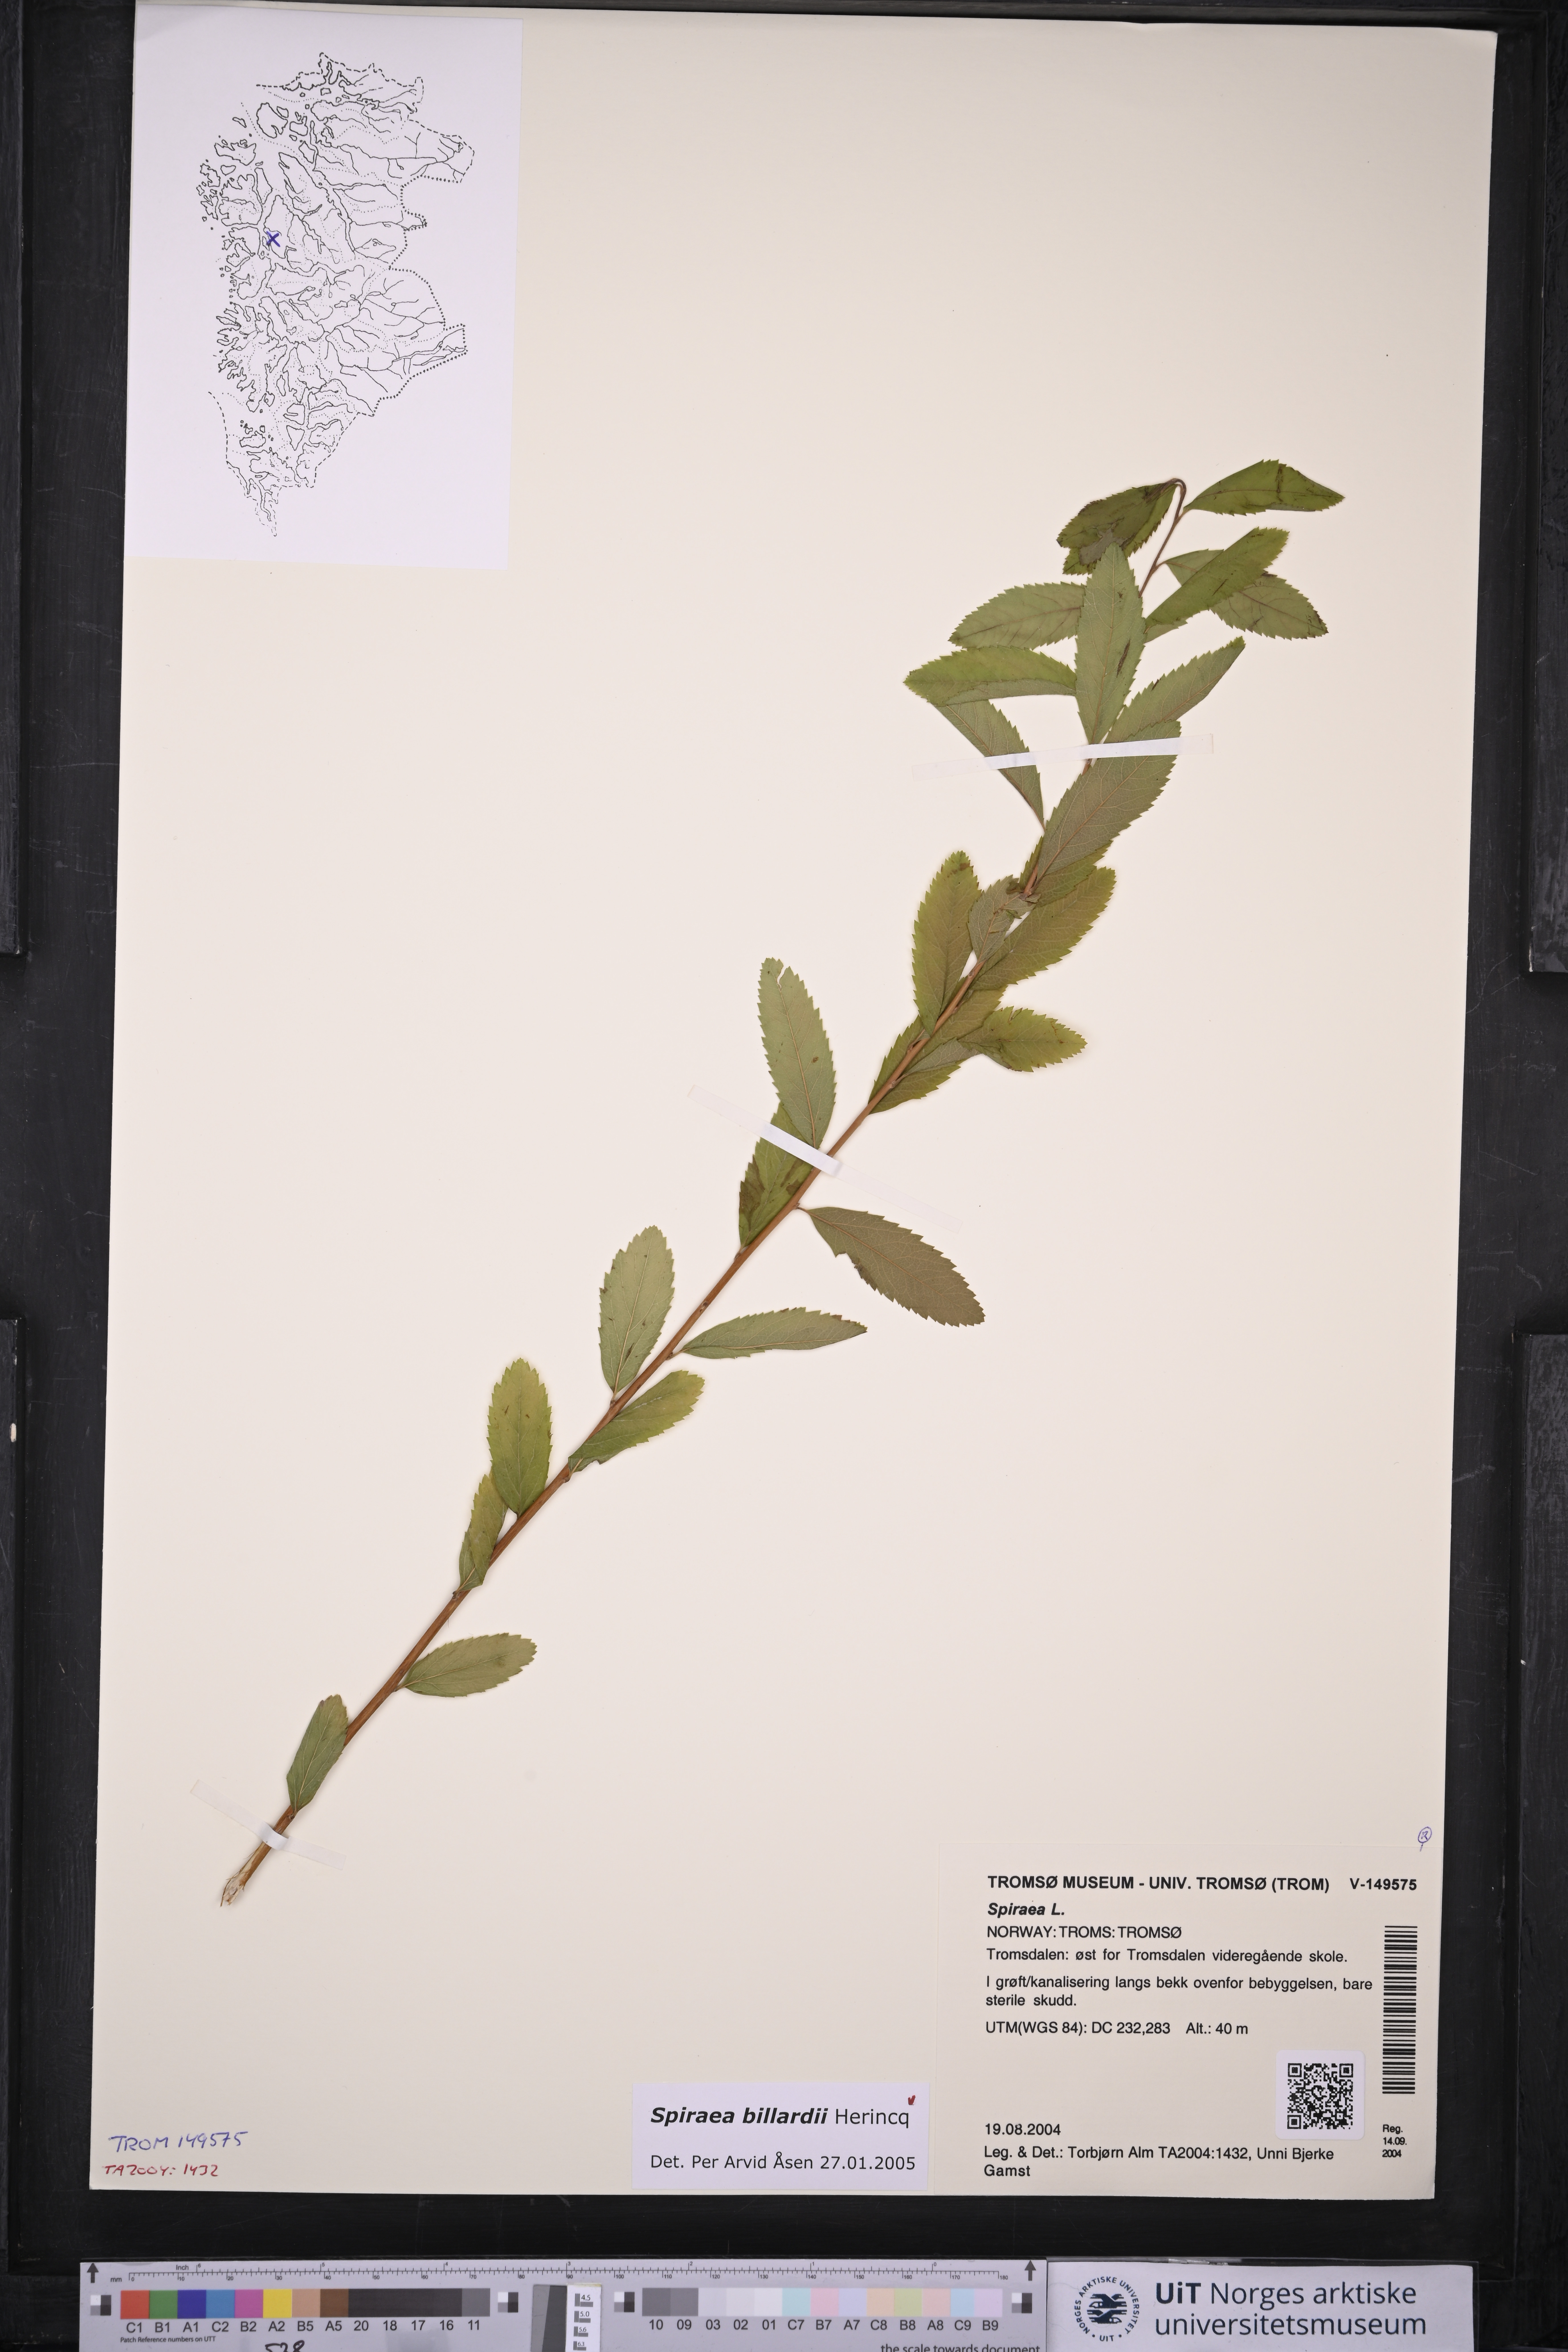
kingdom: Plantae
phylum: Tracheophyta
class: Magnoliopsida
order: Rosales
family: Rosaceae
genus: Spiraea
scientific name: Spiraea billardii
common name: Billard's bridewort
